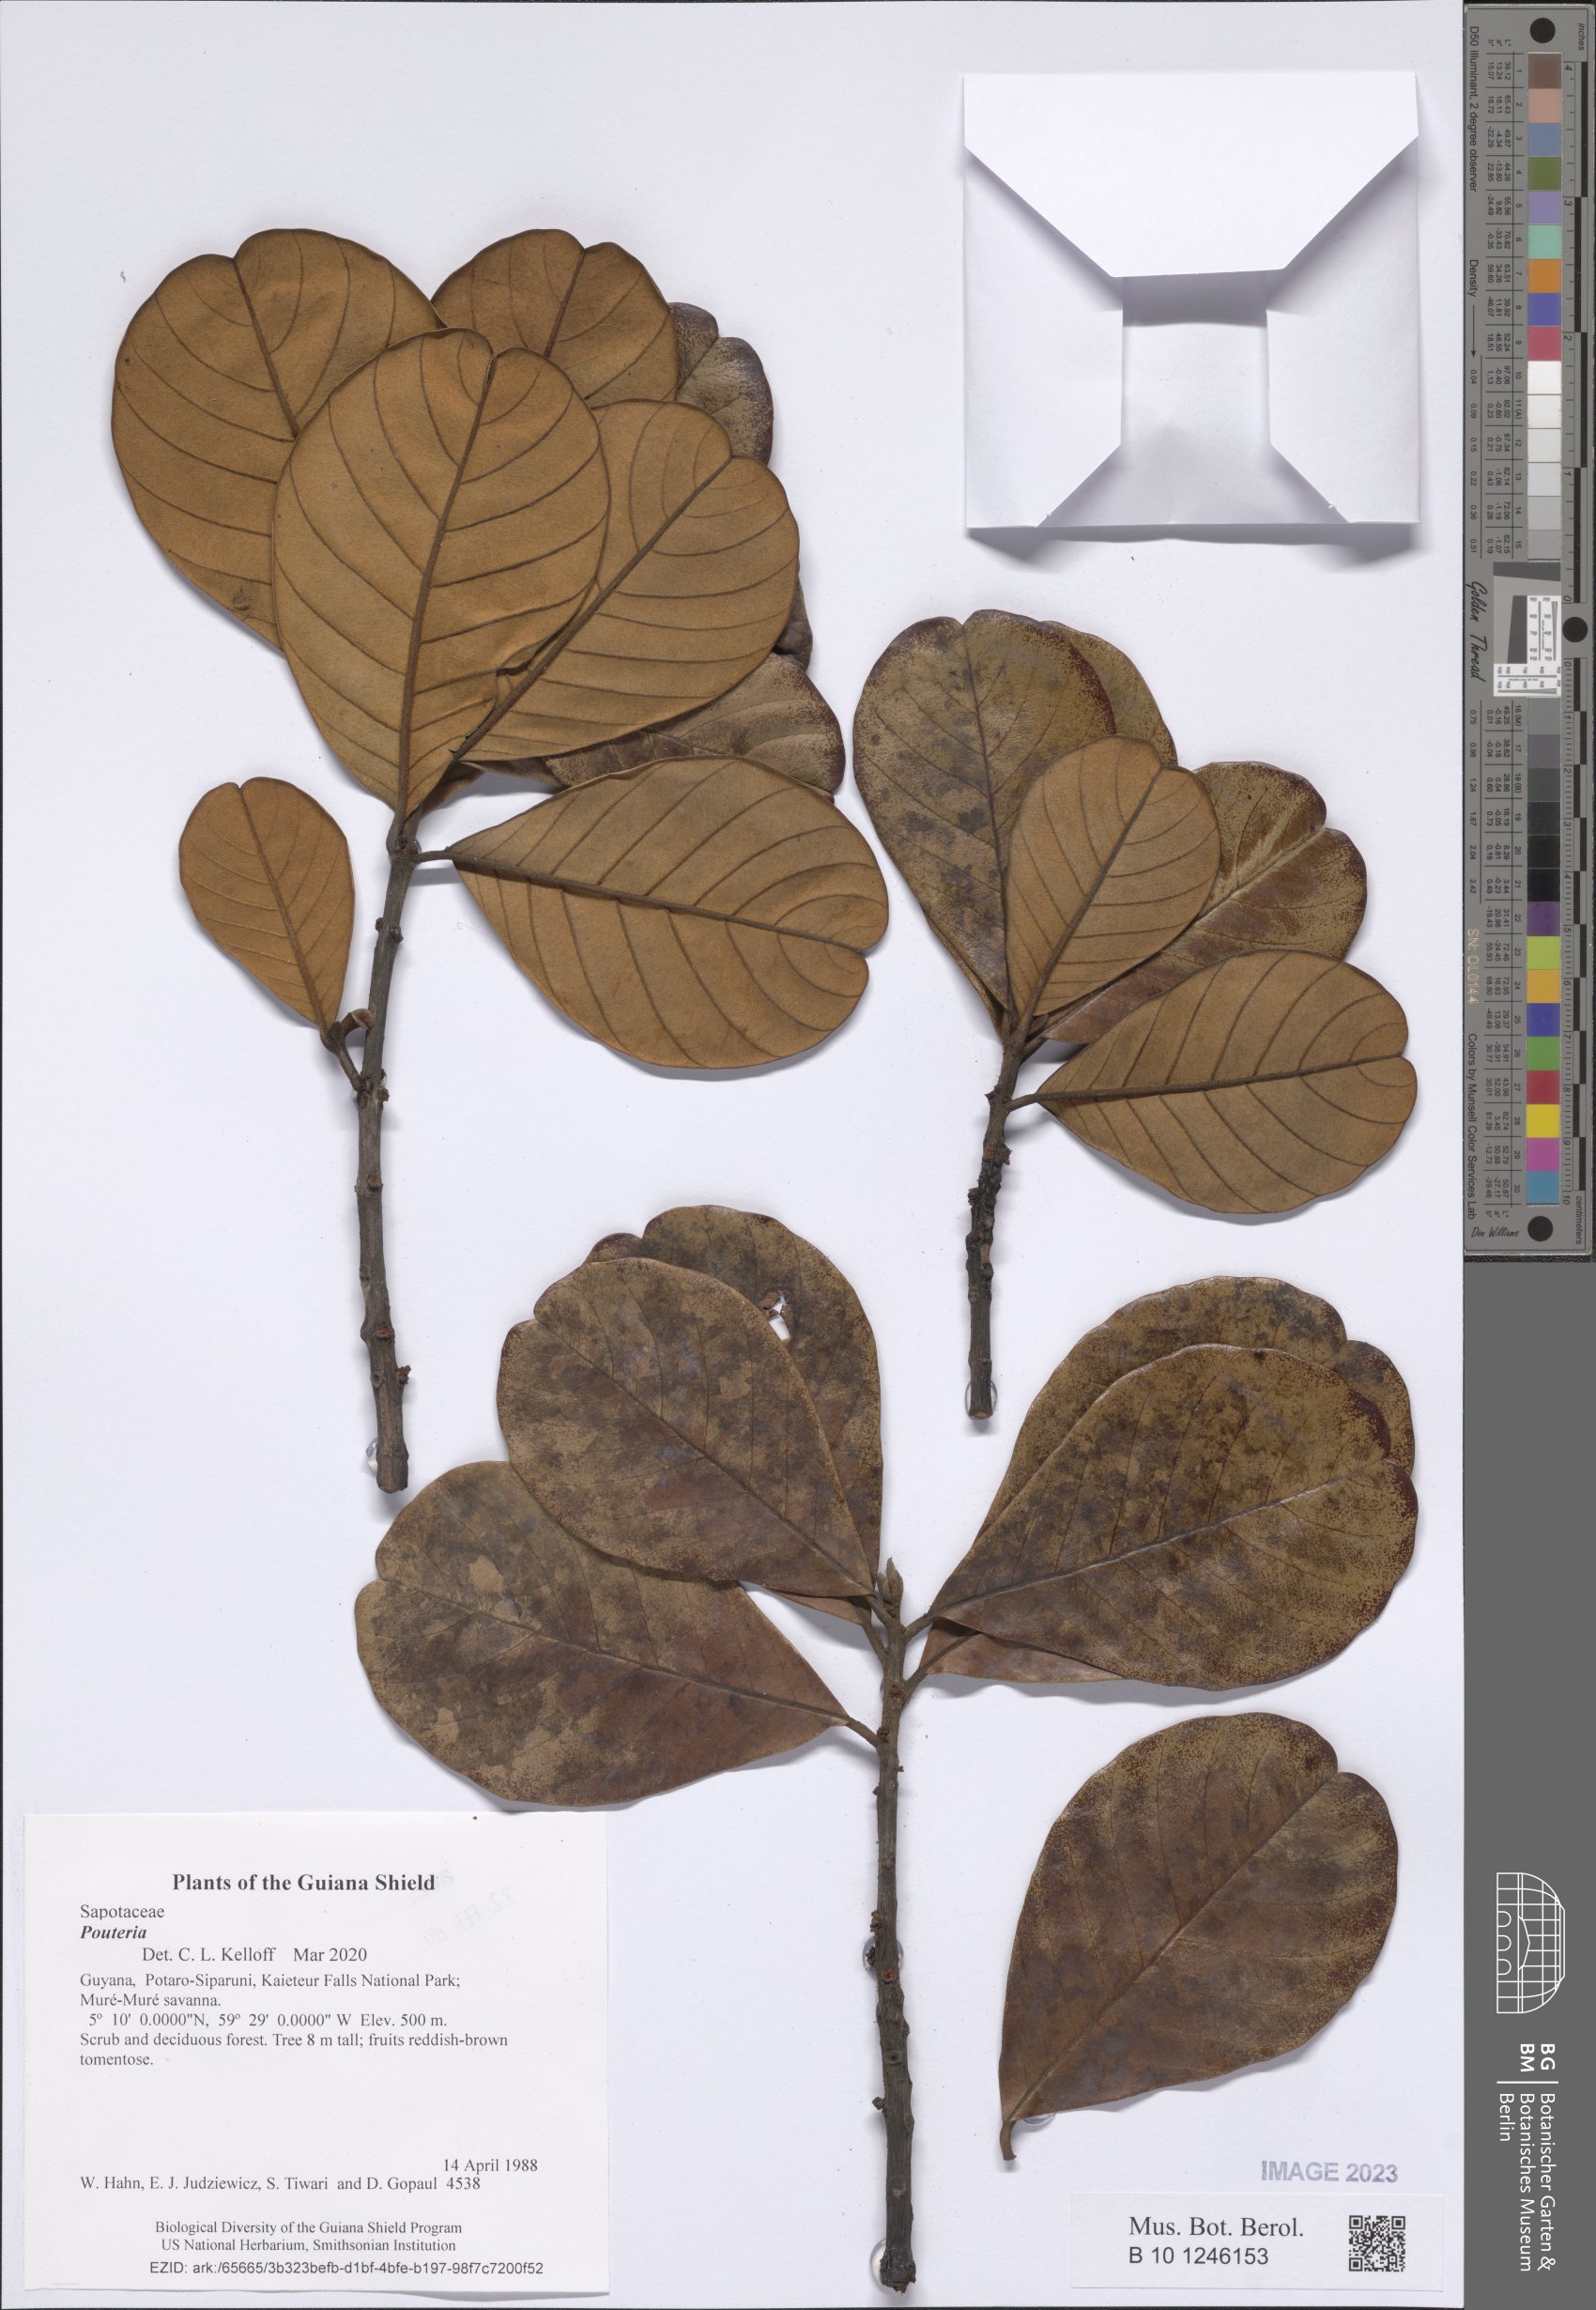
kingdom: Plantae
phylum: Tracheophyta
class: Magnoliopsida
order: Ericales
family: Sapotaceae
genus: Pouteria
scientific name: Pouteria
